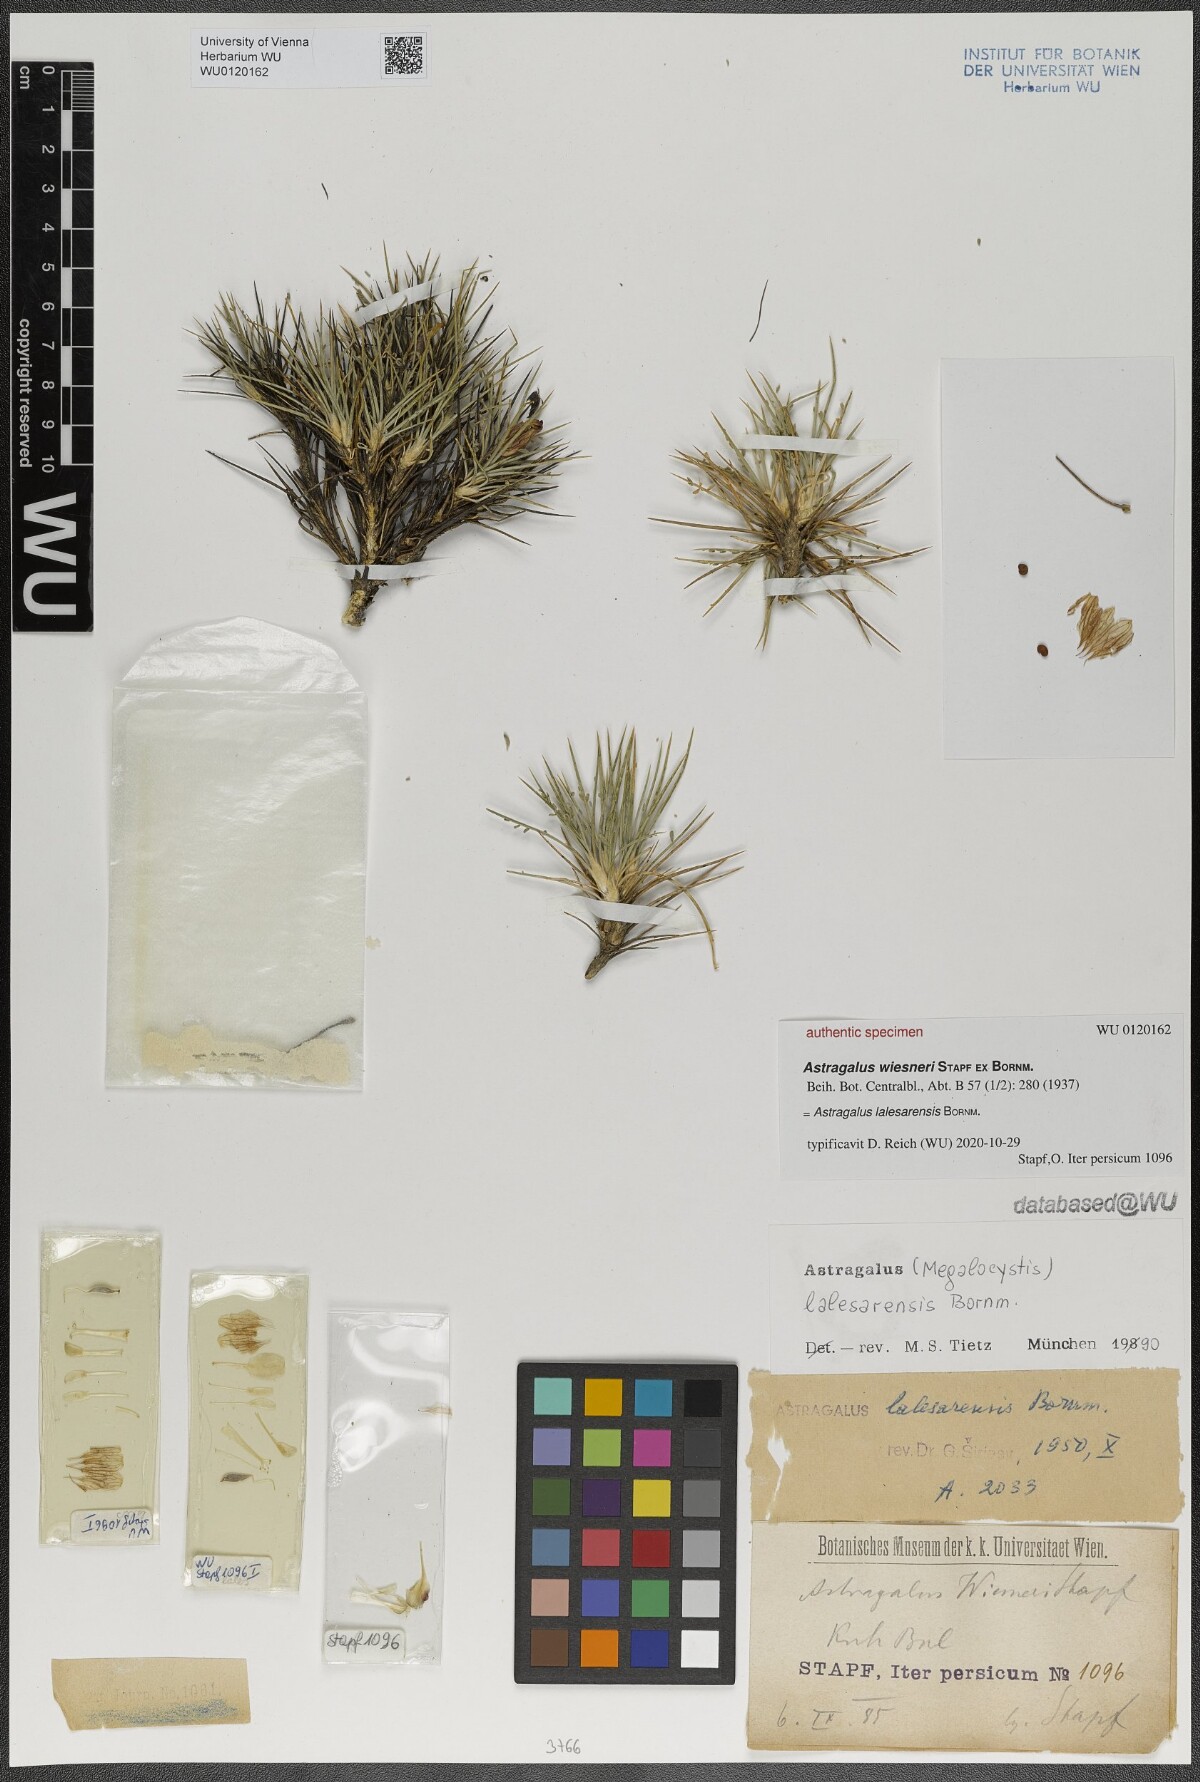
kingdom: Plantae
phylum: Tracheophyta
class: Magnoliopsida
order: Fabales
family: Fabaceae
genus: Astragalus
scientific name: Astragalus lalesarensis
